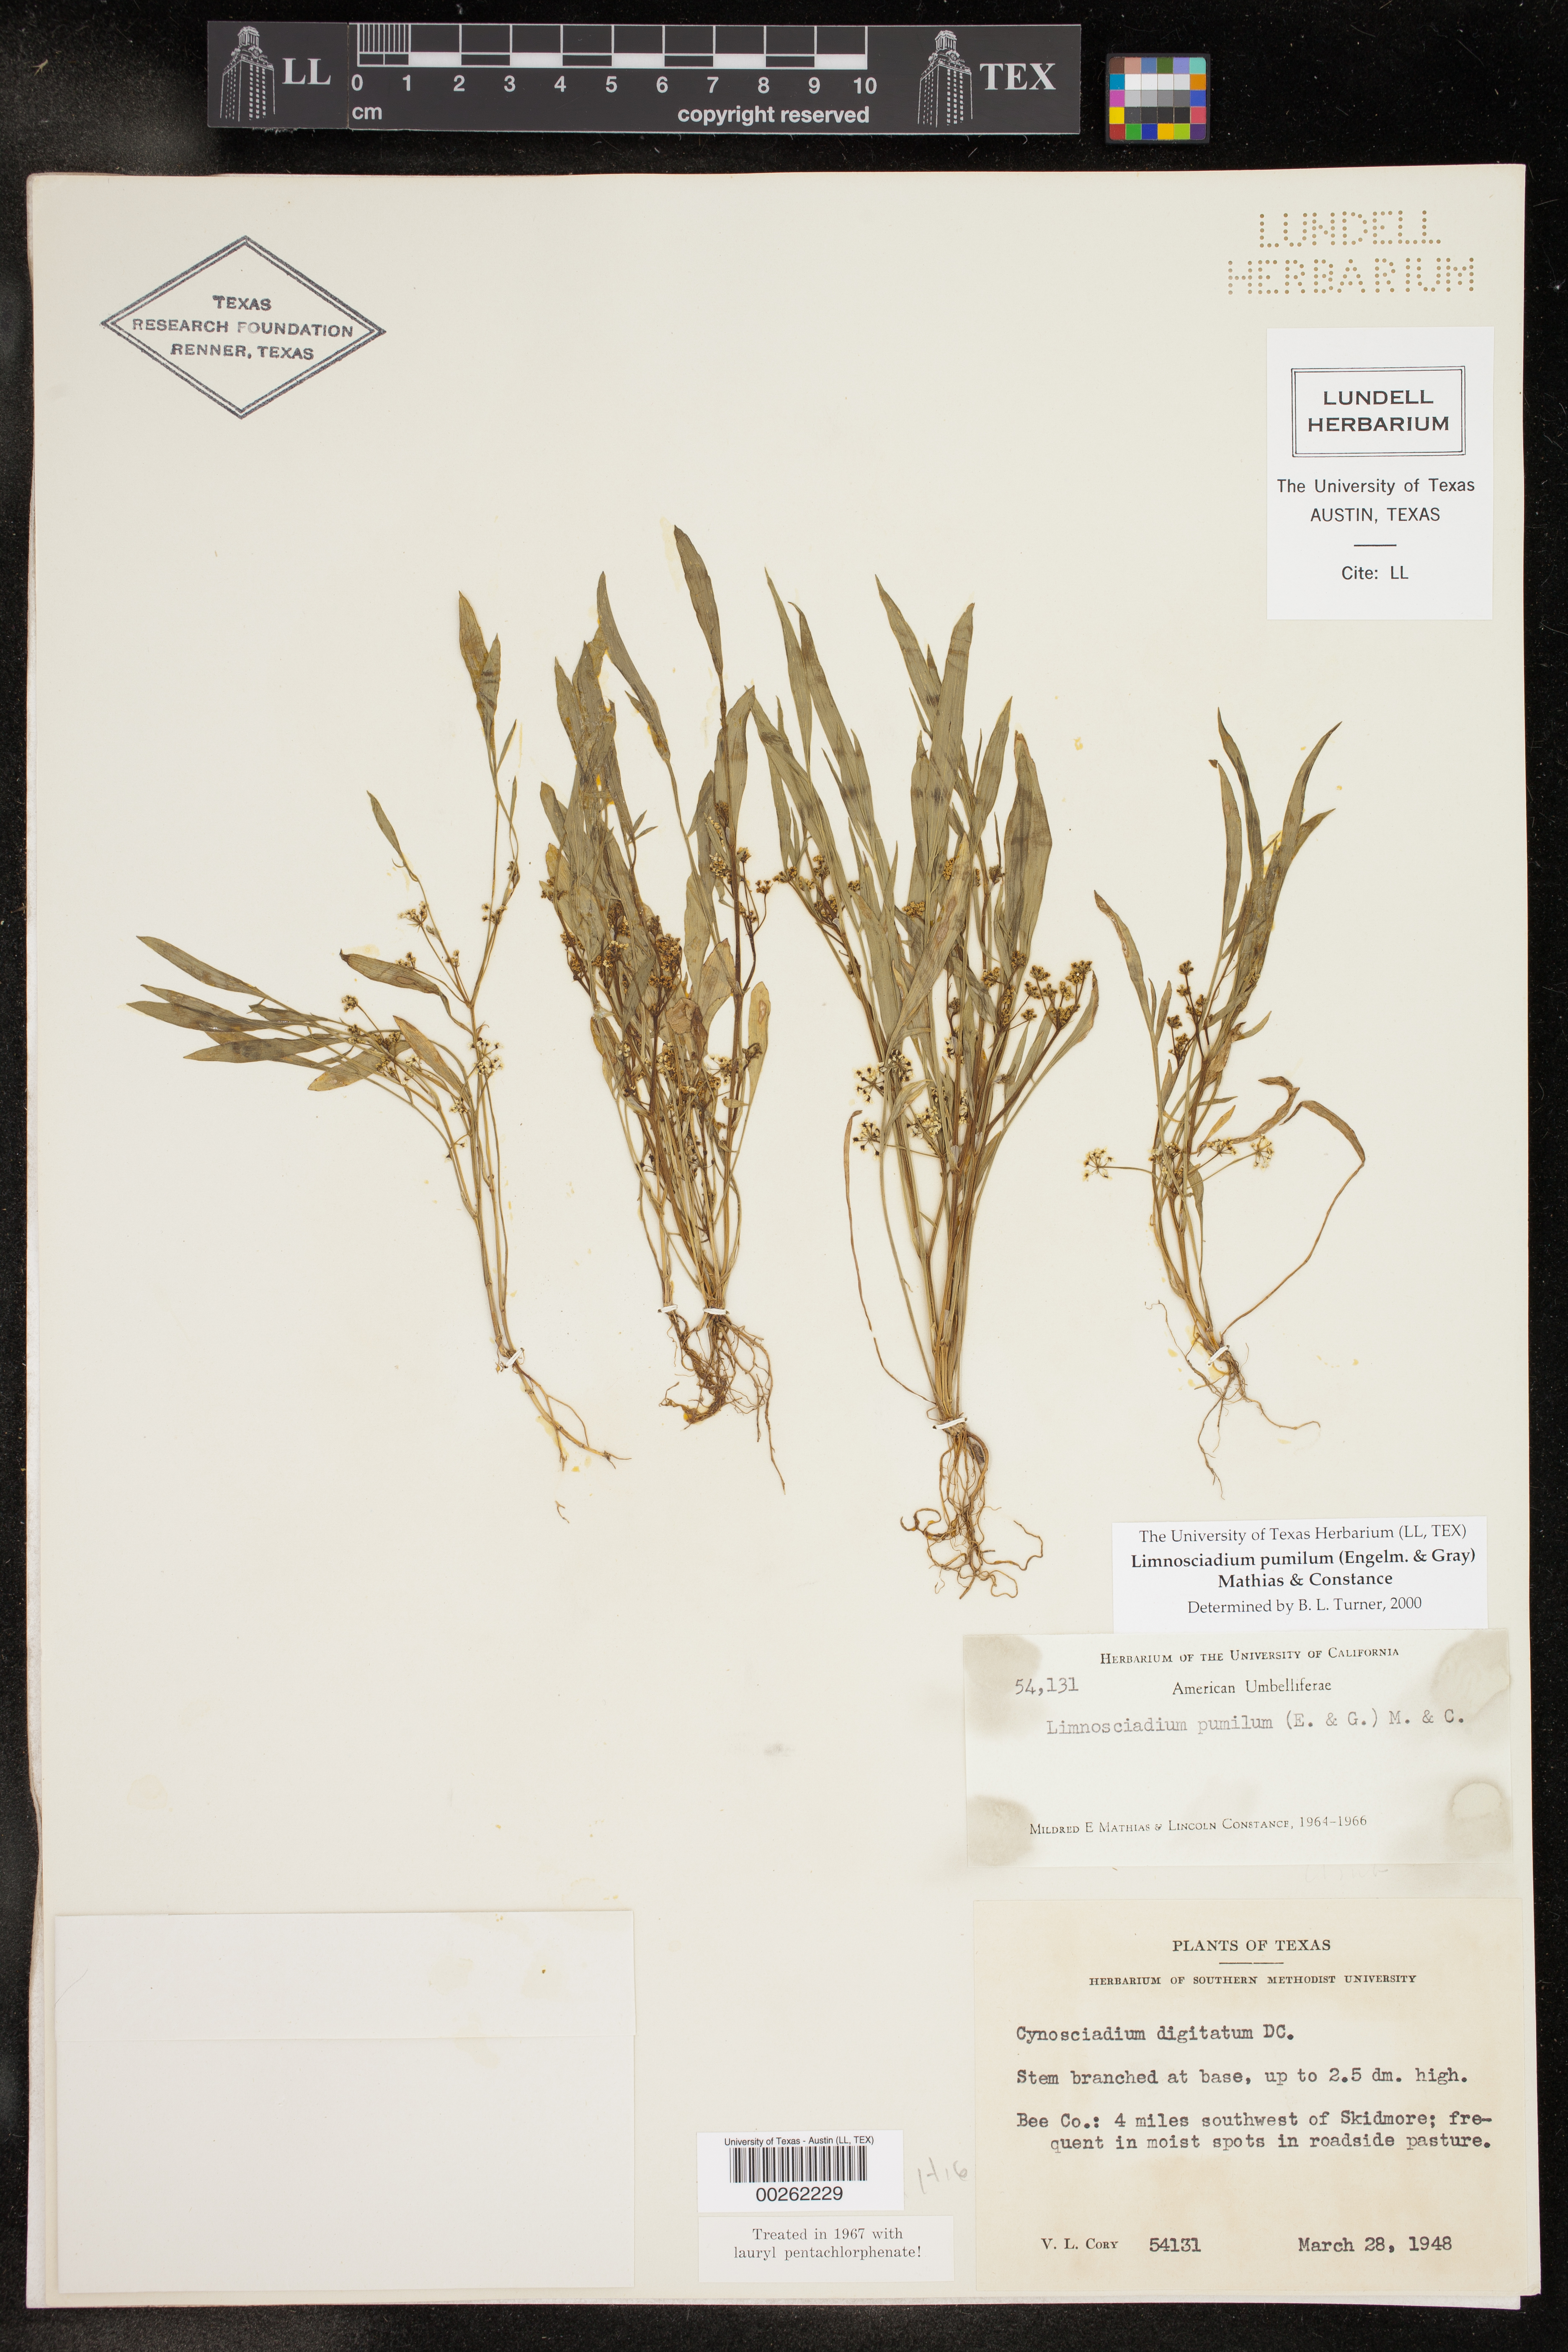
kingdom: Plantae
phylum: Tracheophyta
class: Magnoliopsida
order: Apiales
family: Apiaceae
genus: Limnosciadium
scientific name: Limnosciadium pinnatum
